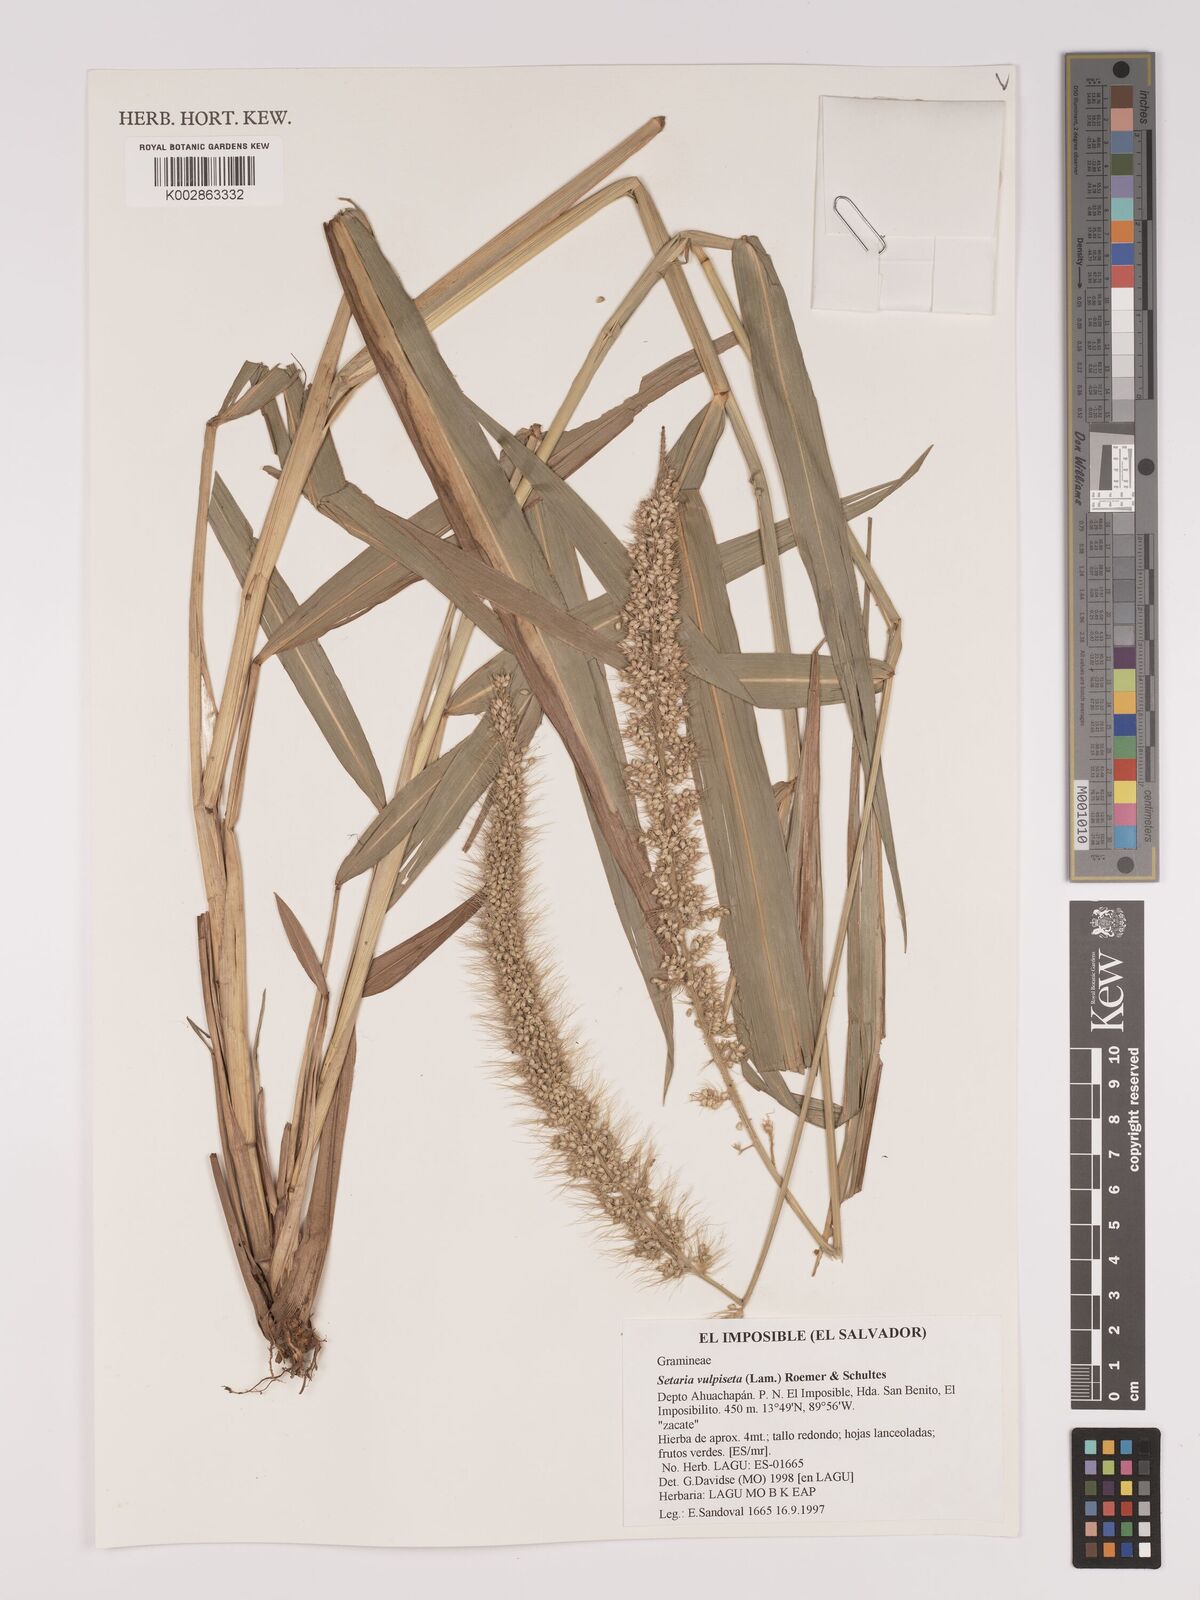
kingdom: Plantae
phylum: Tracheophyta
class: Liliopsida
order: Poales
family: Poaceae
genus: Setaria
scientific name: Setaria
